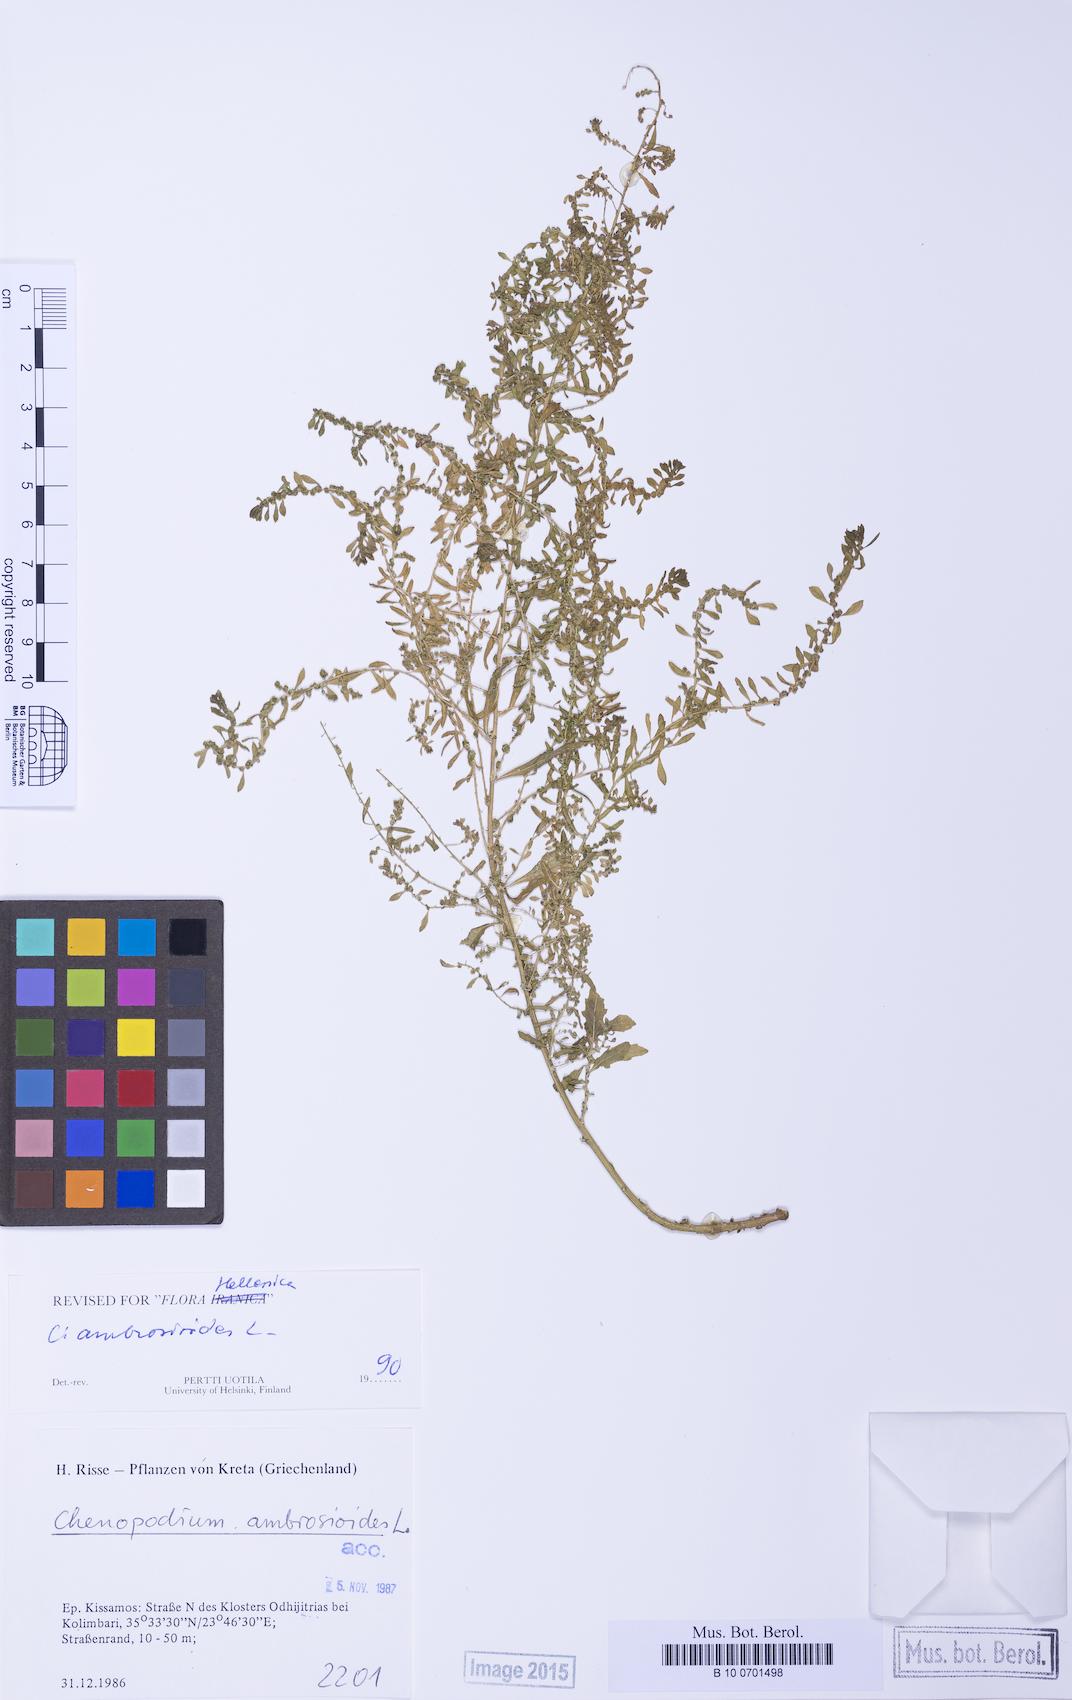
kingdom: Plantae
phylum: Tracheophyta
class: Magnoliopsida
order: Caryophyllales
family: Amaranthaceae
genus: Dysphania
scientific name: Dysphania ambrosioides
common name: Wormseed
